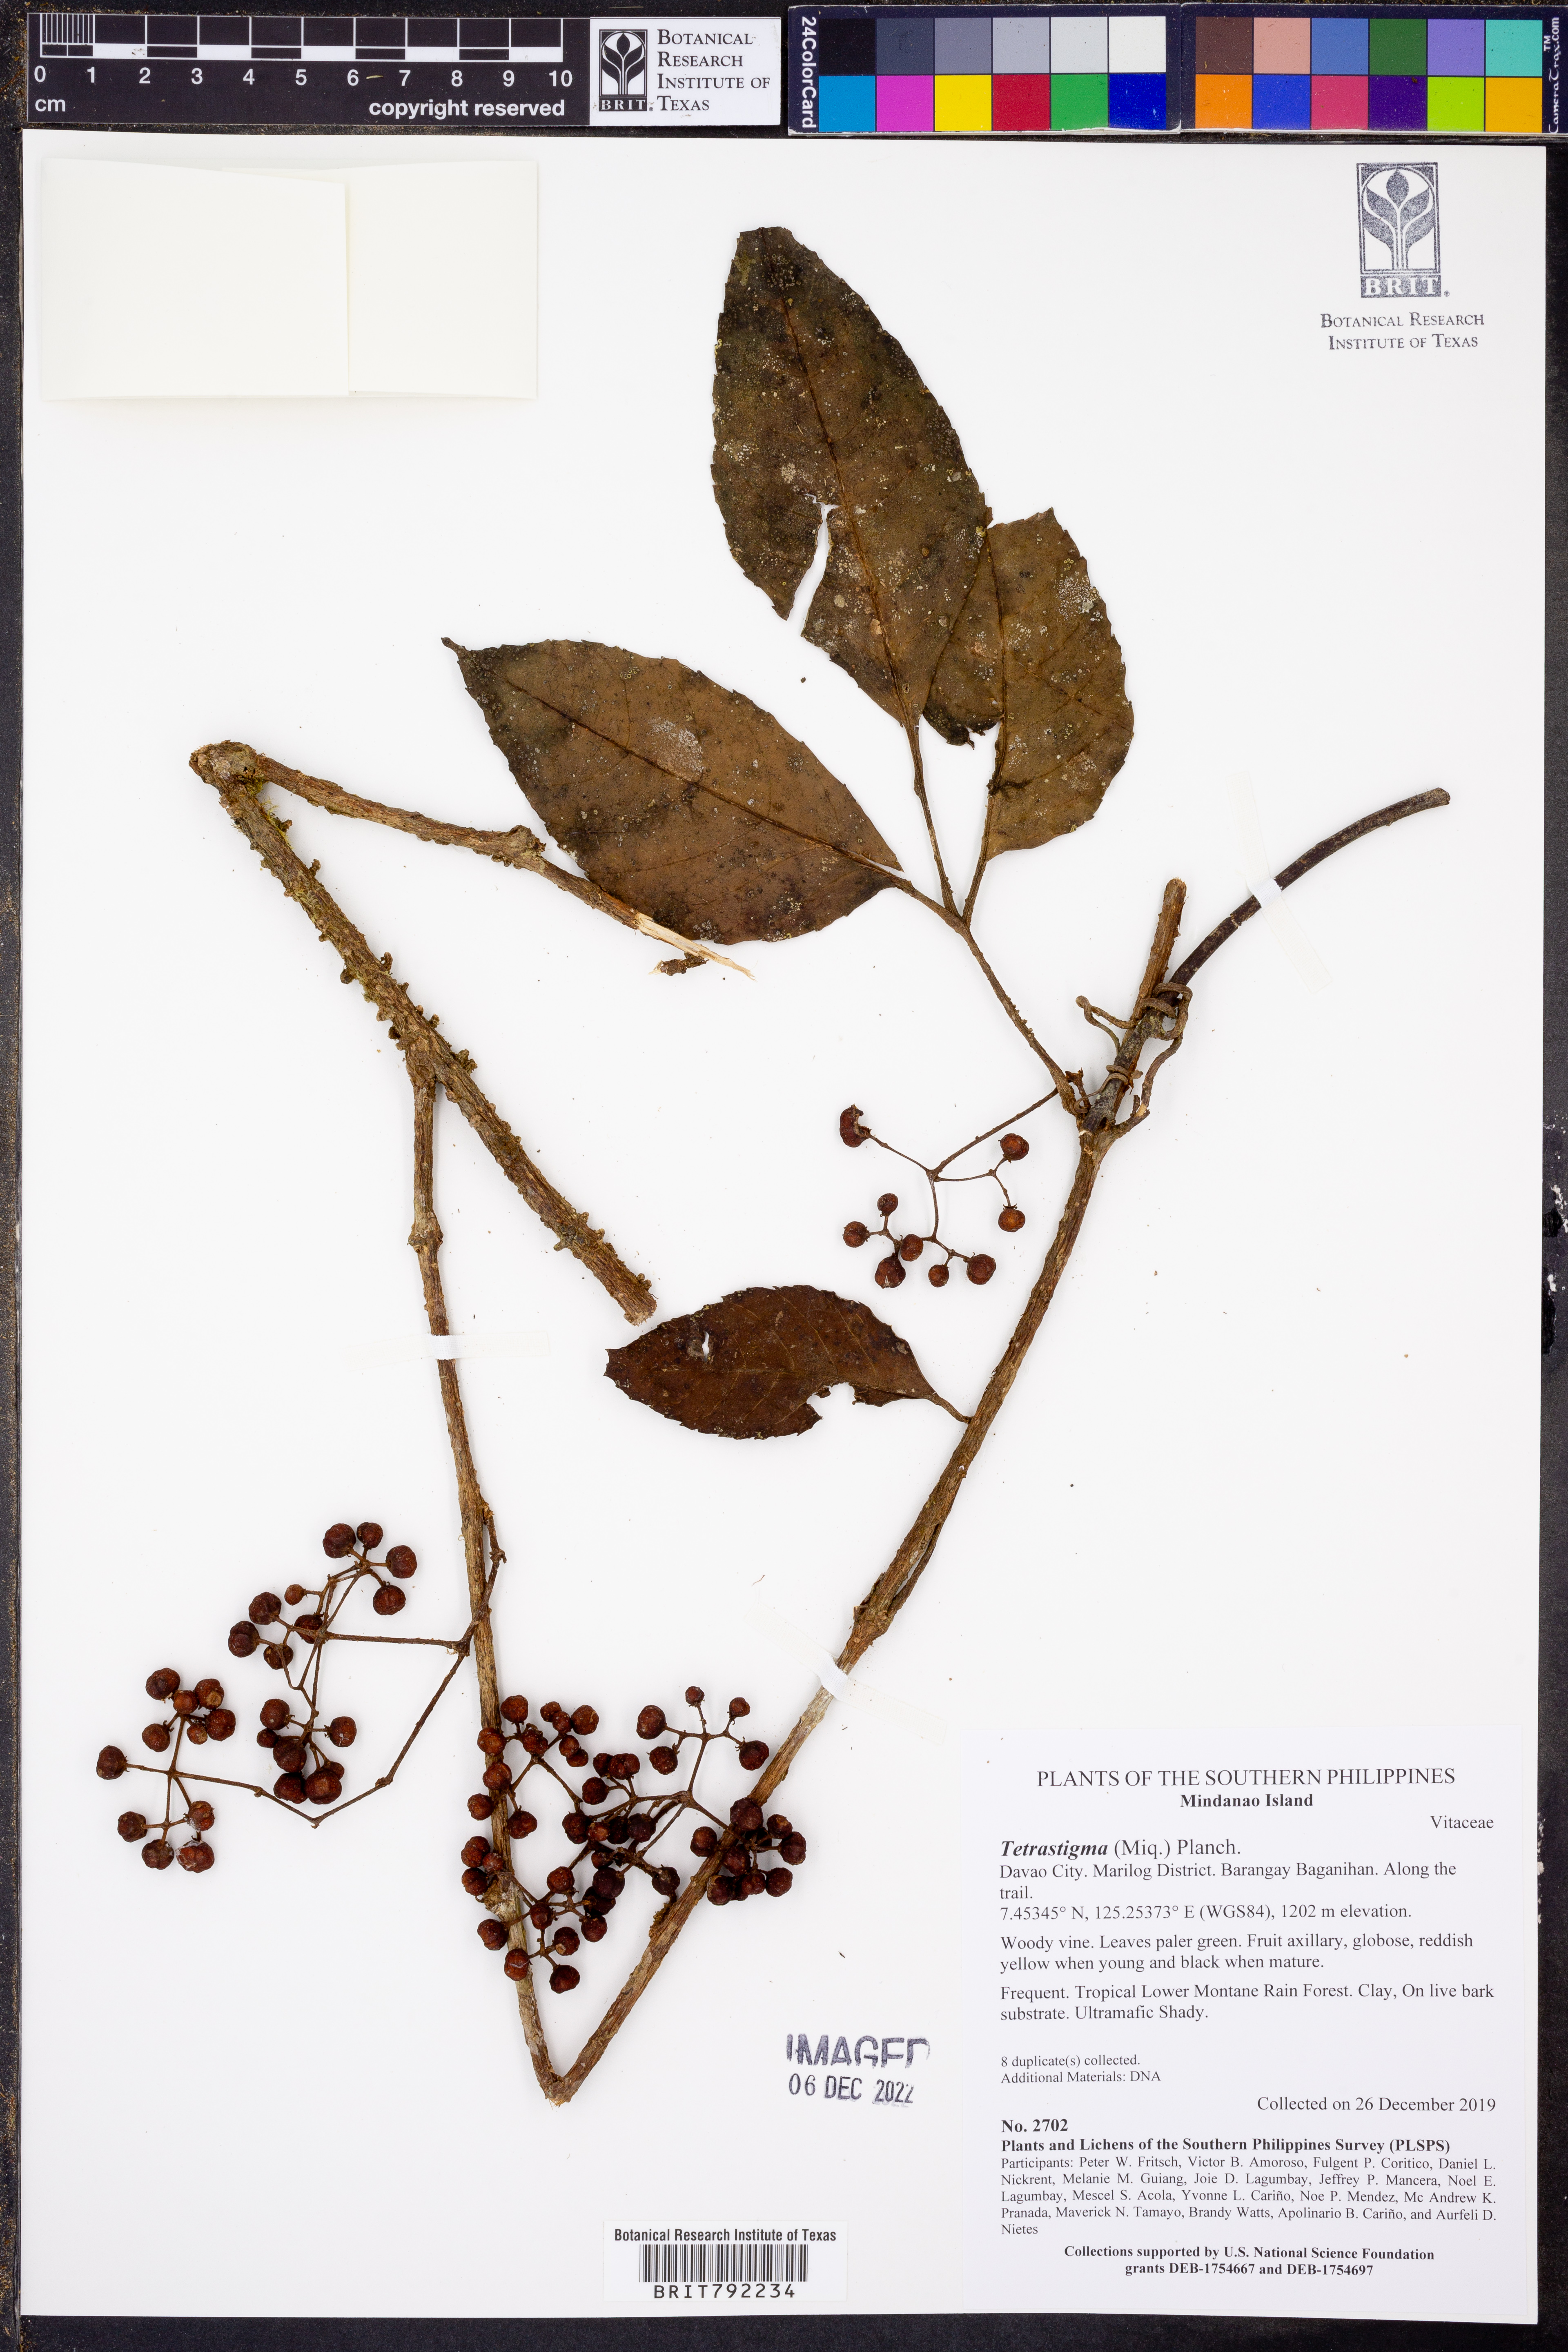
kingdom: Plantae
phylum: Tracheophyta
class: Magnoliopsida
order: Vitales
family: Vitaceae
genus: Tetrastigma
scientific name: Tetrastigma
